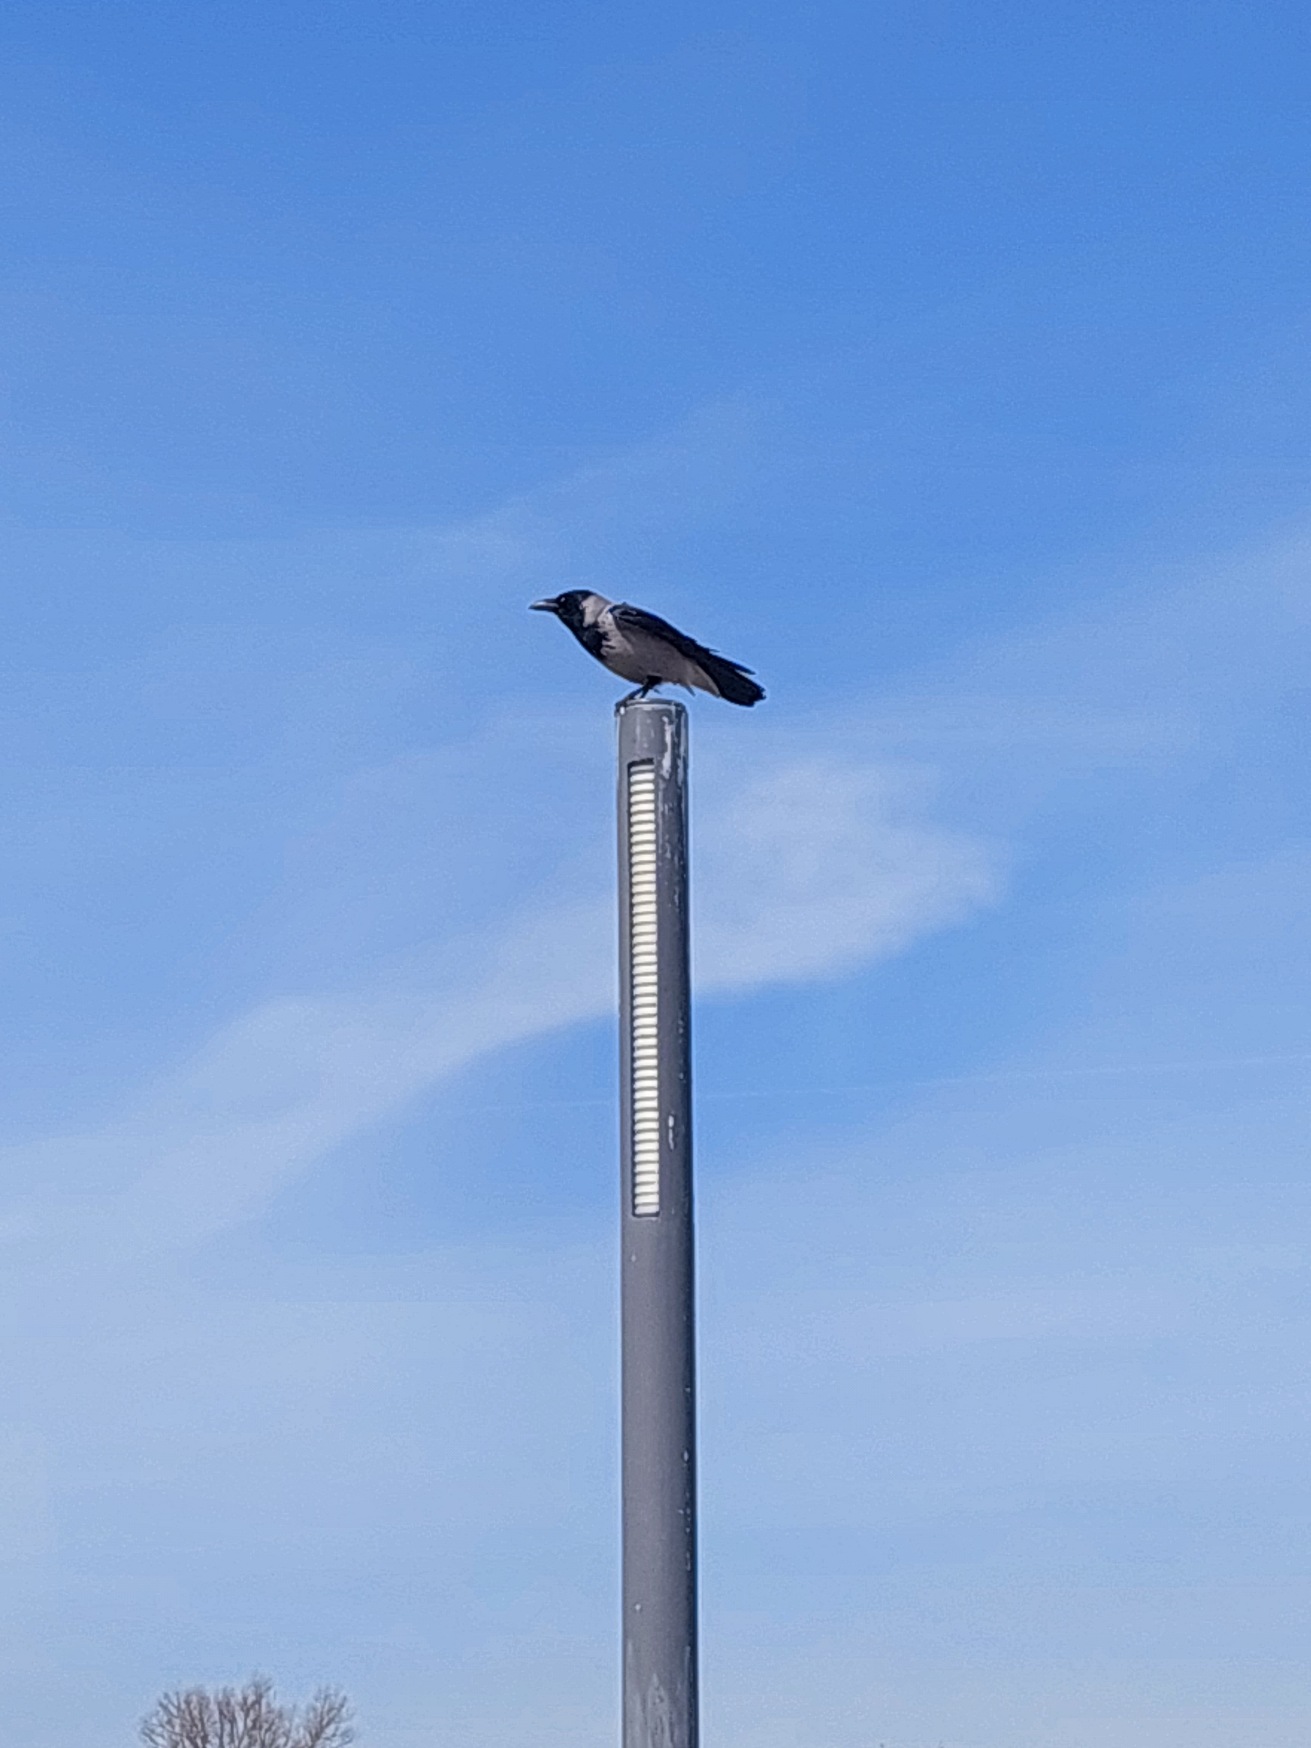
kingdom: Animalia
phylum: Chordata
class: Aves
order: Passeriformes
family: Corvidae
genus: Corvus
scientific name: Corvus cornix
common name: Gråkrage
